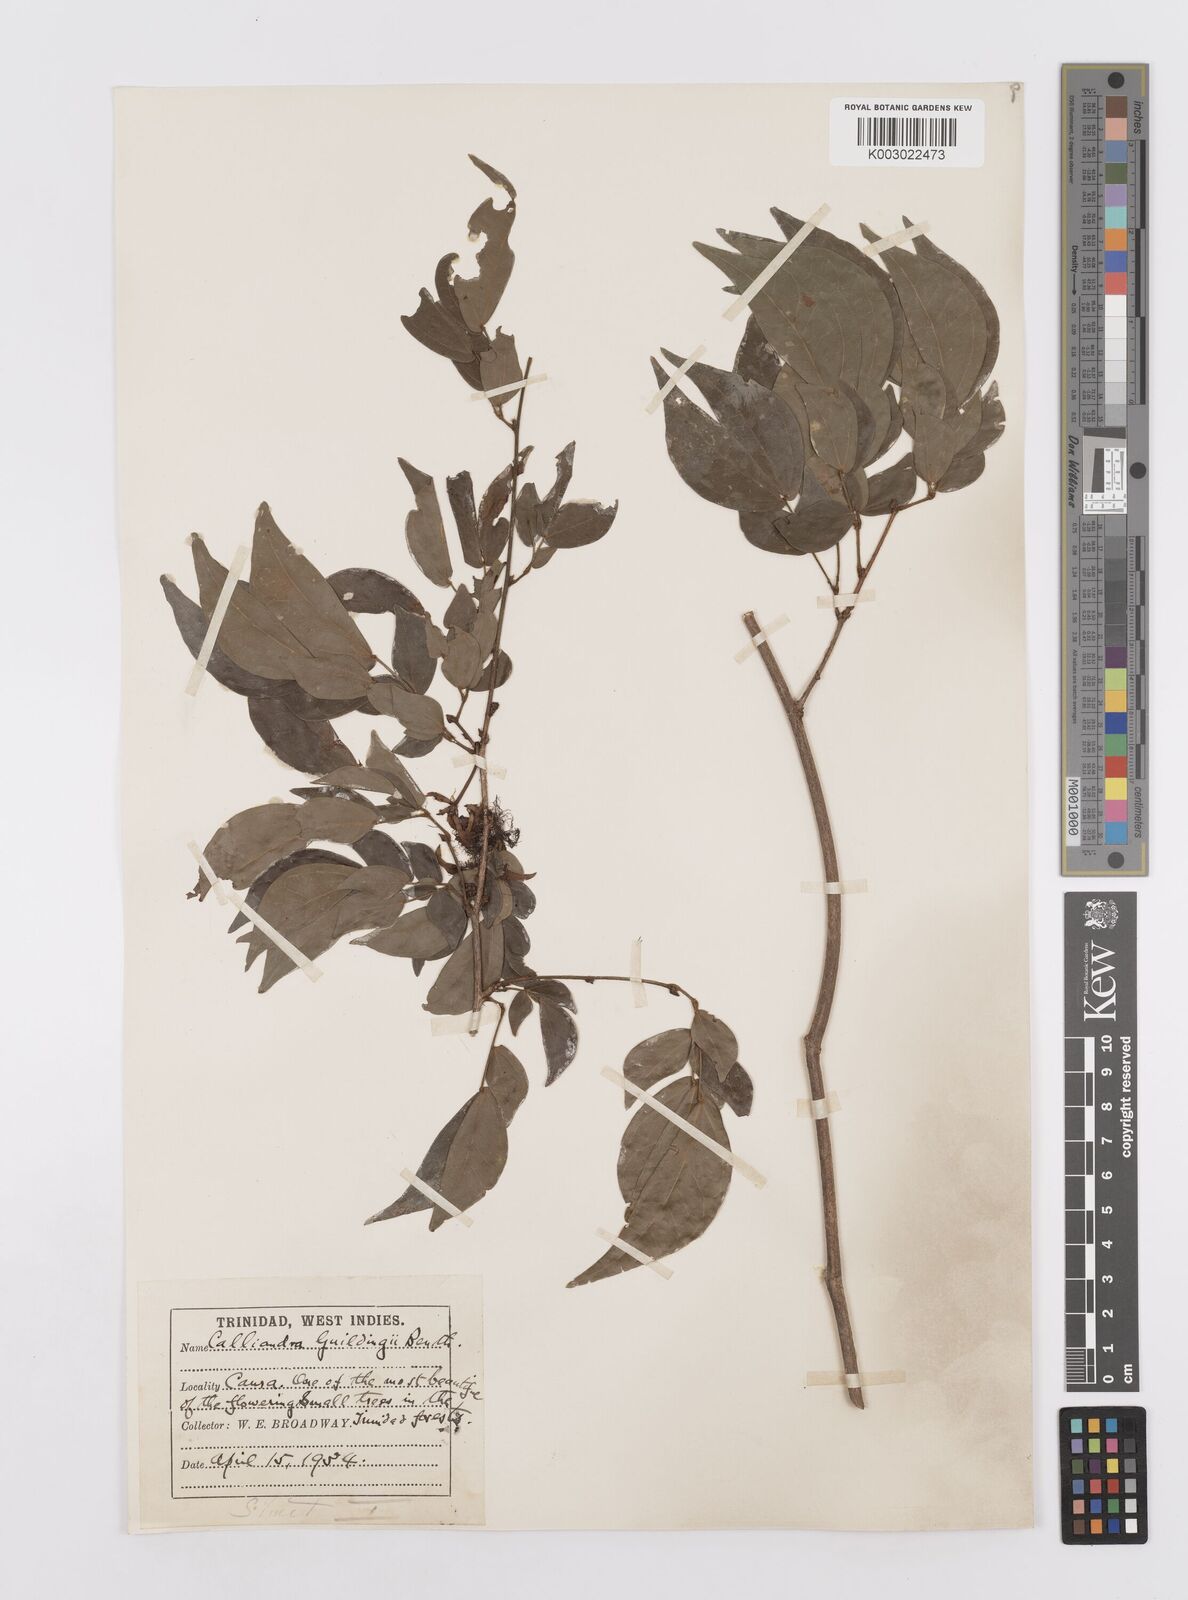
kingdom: Plantae
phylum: Tracheophyta
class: Magnoliopsida
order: Fabales
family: Fabaceae
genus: Calliandra
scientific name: Calliandra guildingii
